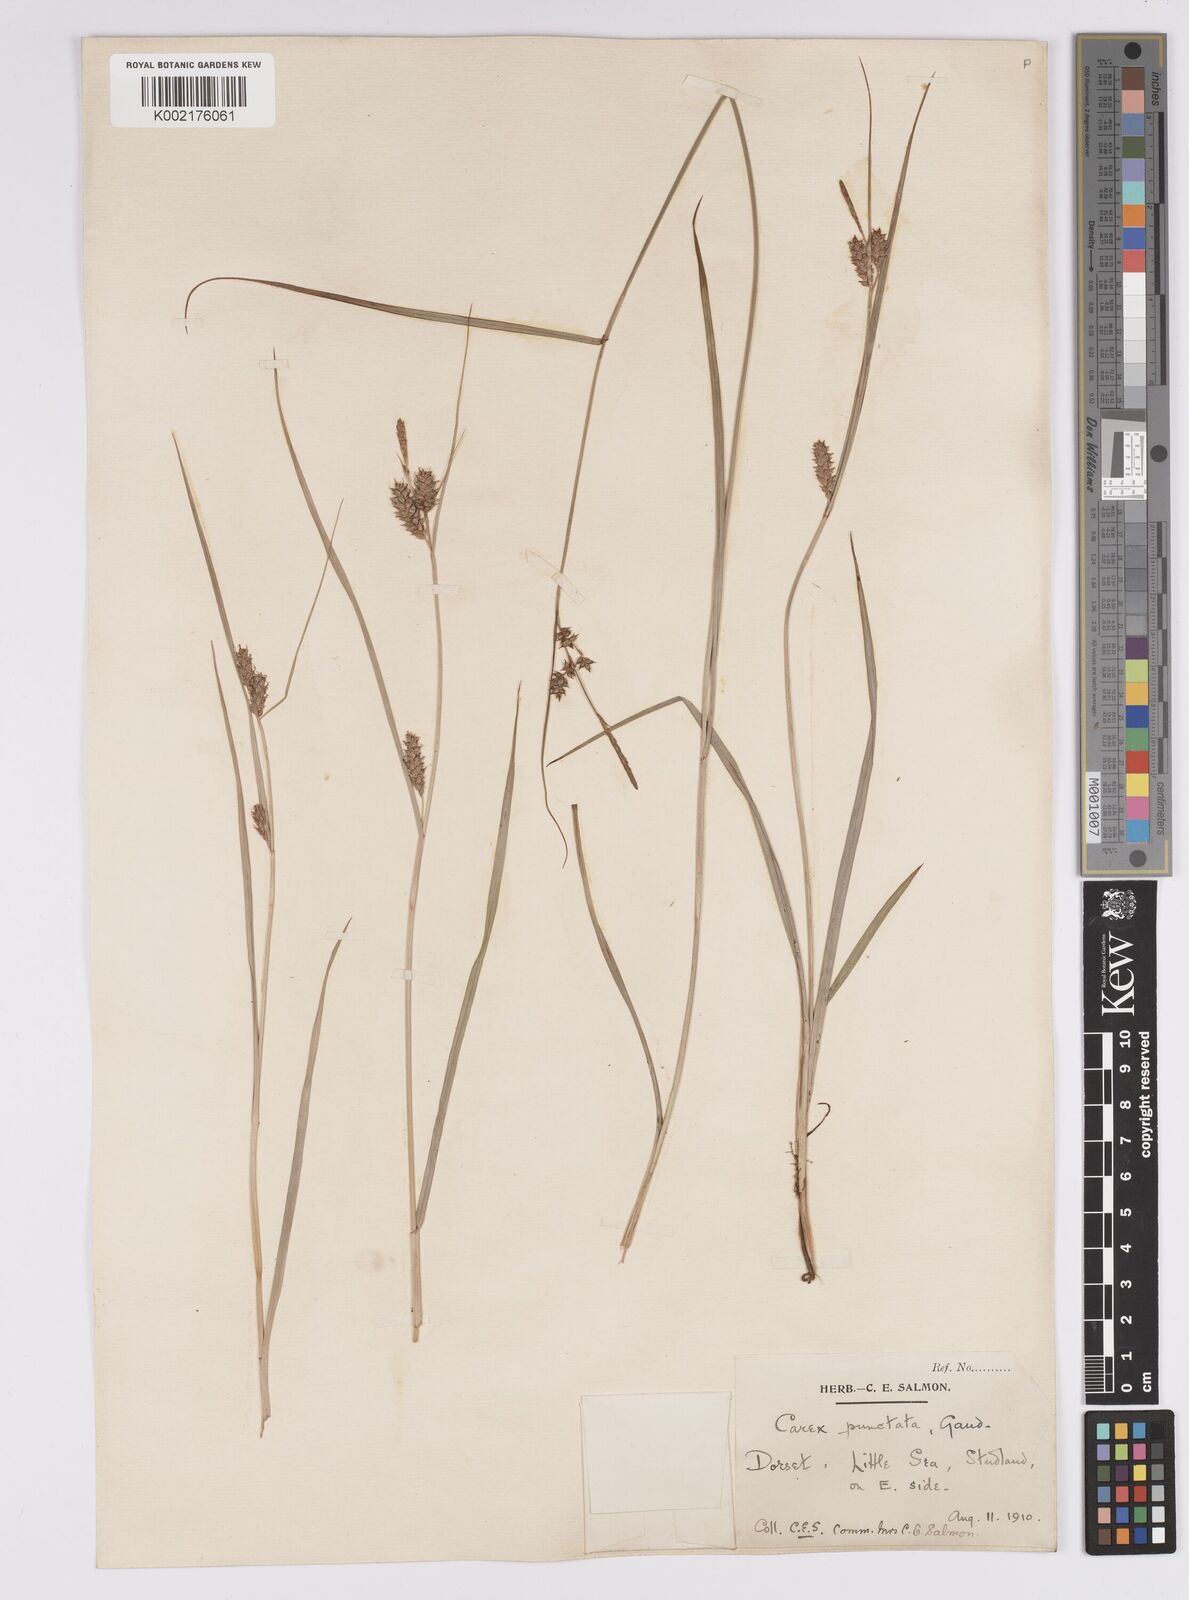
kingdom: Plantae
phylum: Tracheophyta
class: Liliopsida
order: Poales
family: Cyperaceae
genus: Carex
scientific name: Carex punctata
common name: Dotted sedge
